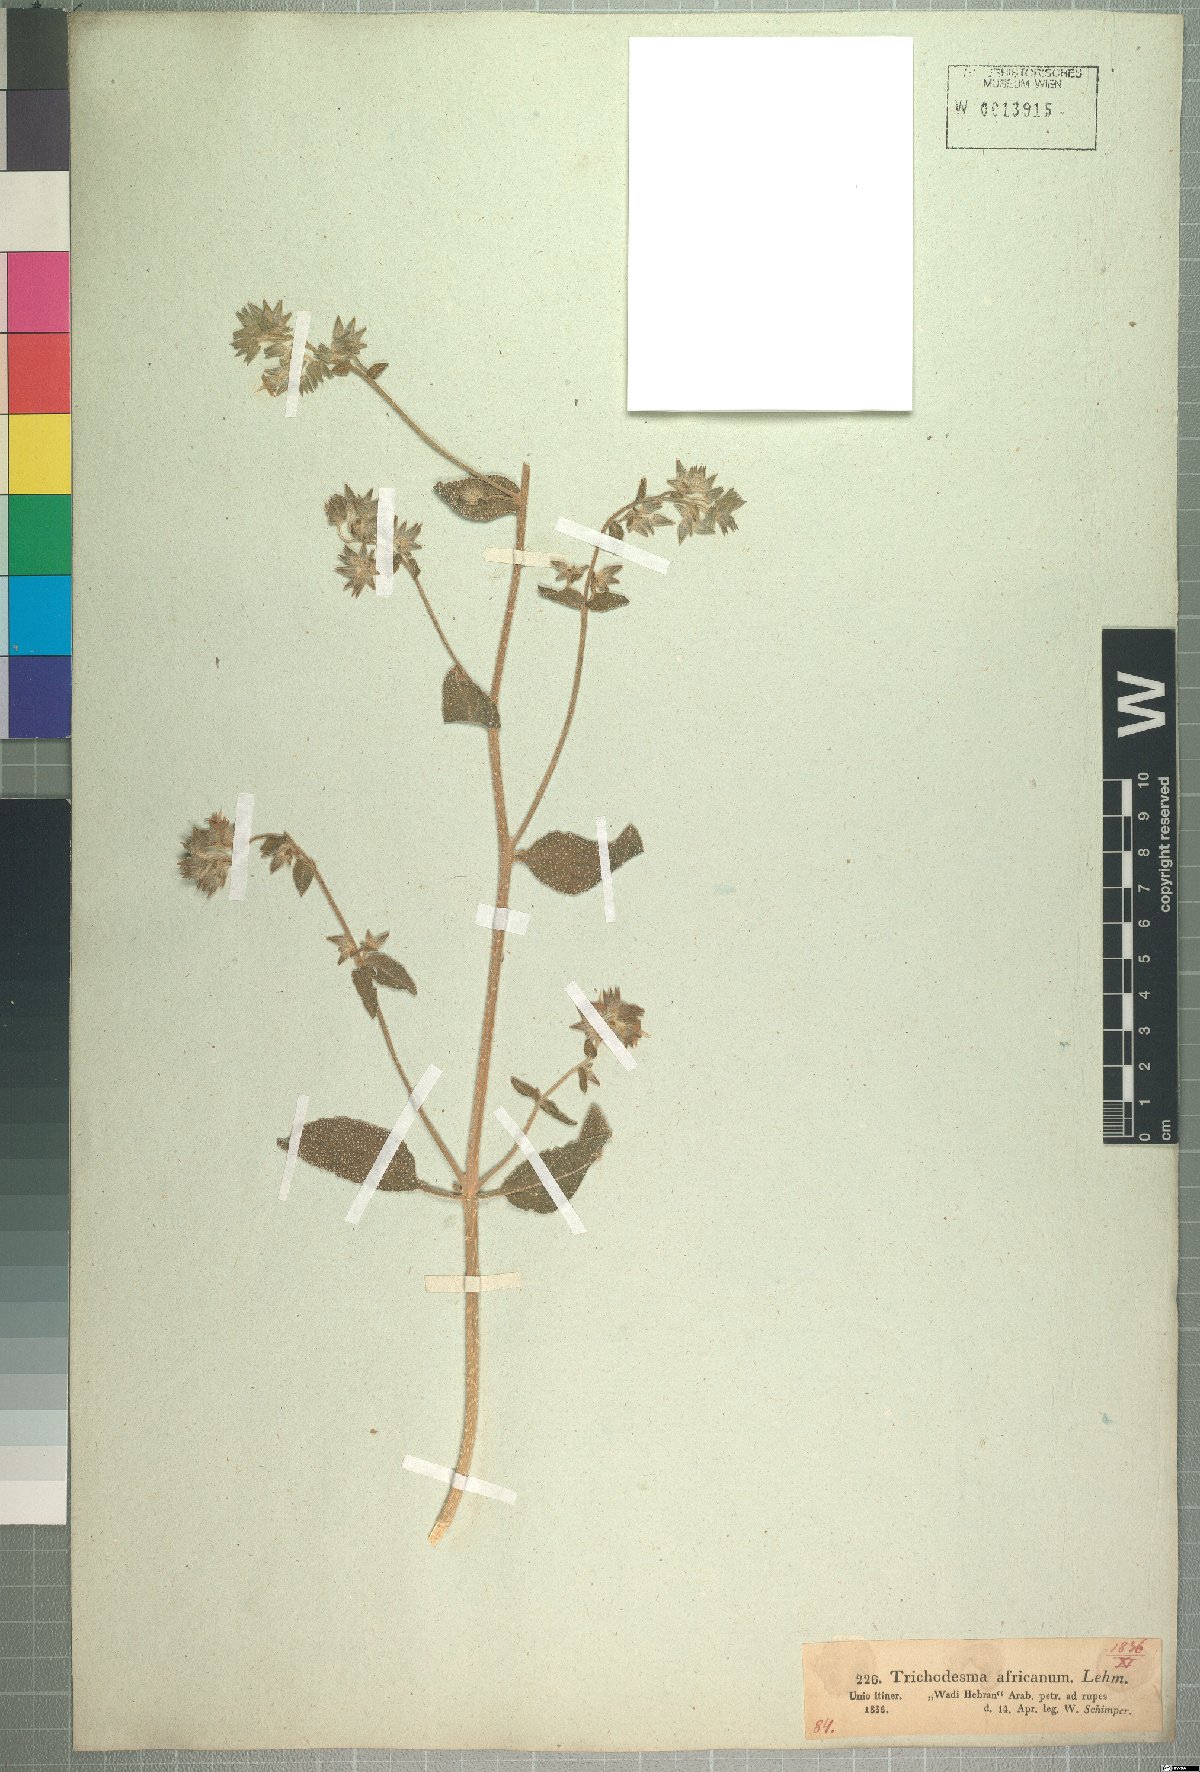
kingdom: Plantae
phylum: Tracheophyta
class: Magnoliopsida
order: Boraginales
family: Boraginaceae
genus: Trichodesma
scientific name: Trichodesma africanum
